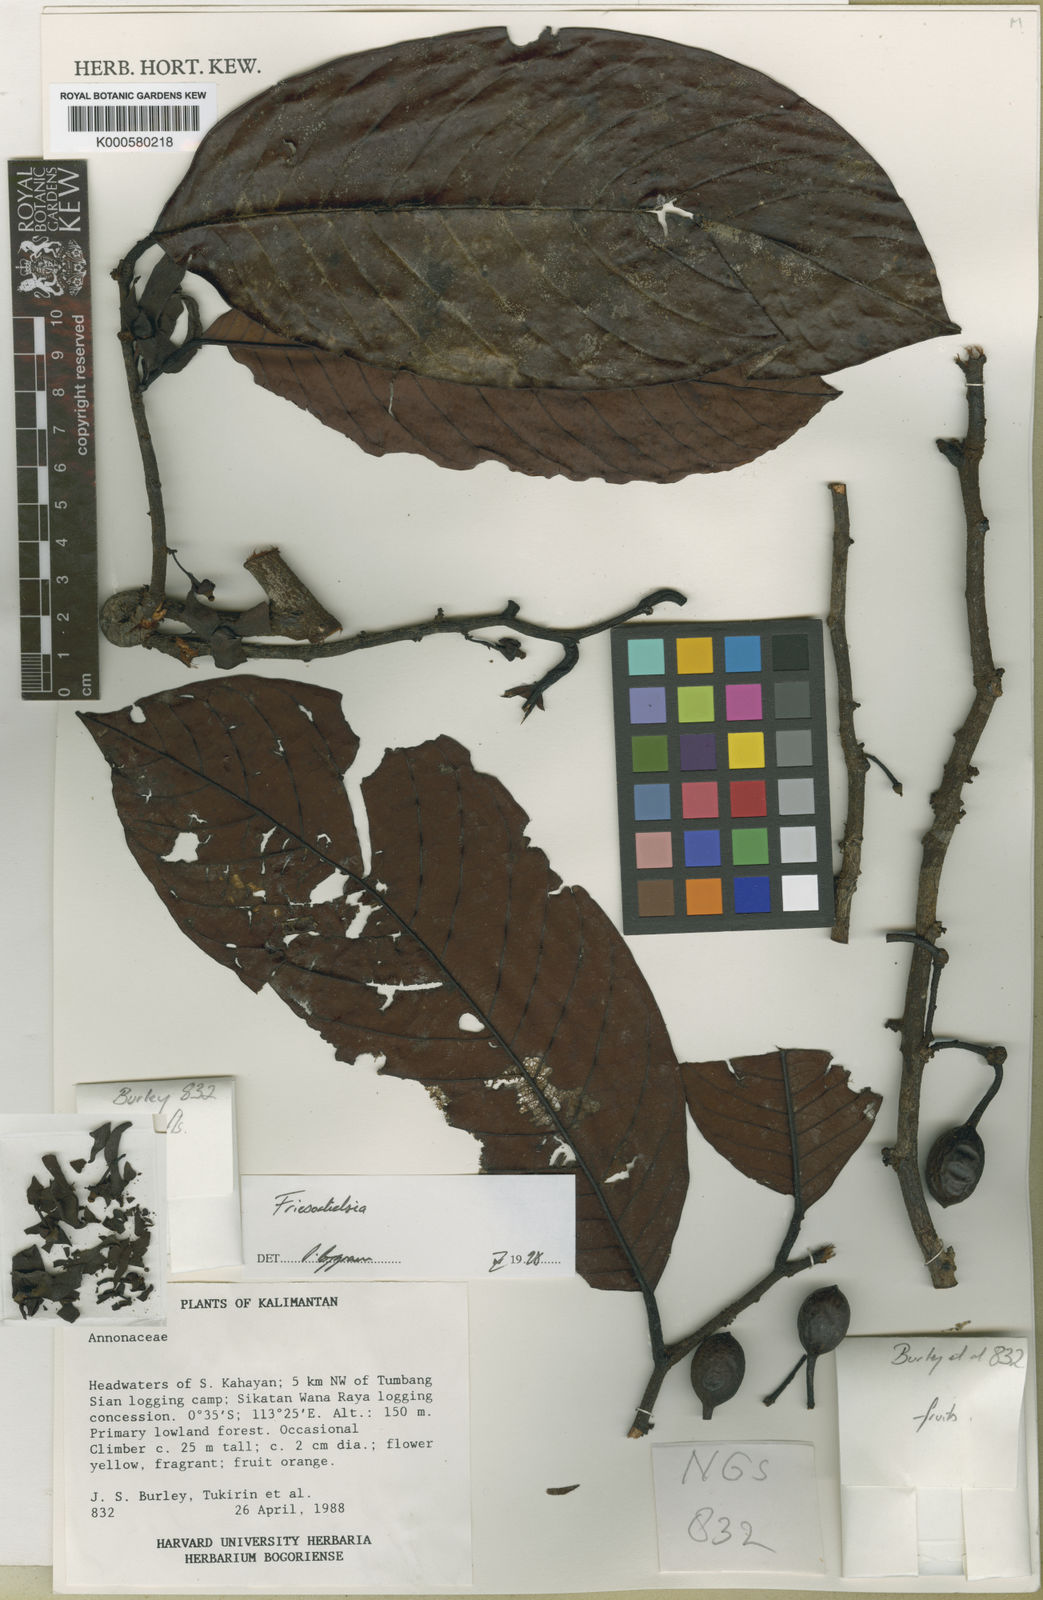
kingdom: Plantae
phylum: Tracheophyta
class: Magnoliopsida
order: Magnoliales
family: Annonaceae
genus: Friesodielsia
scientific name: Friesodielsia formosa
